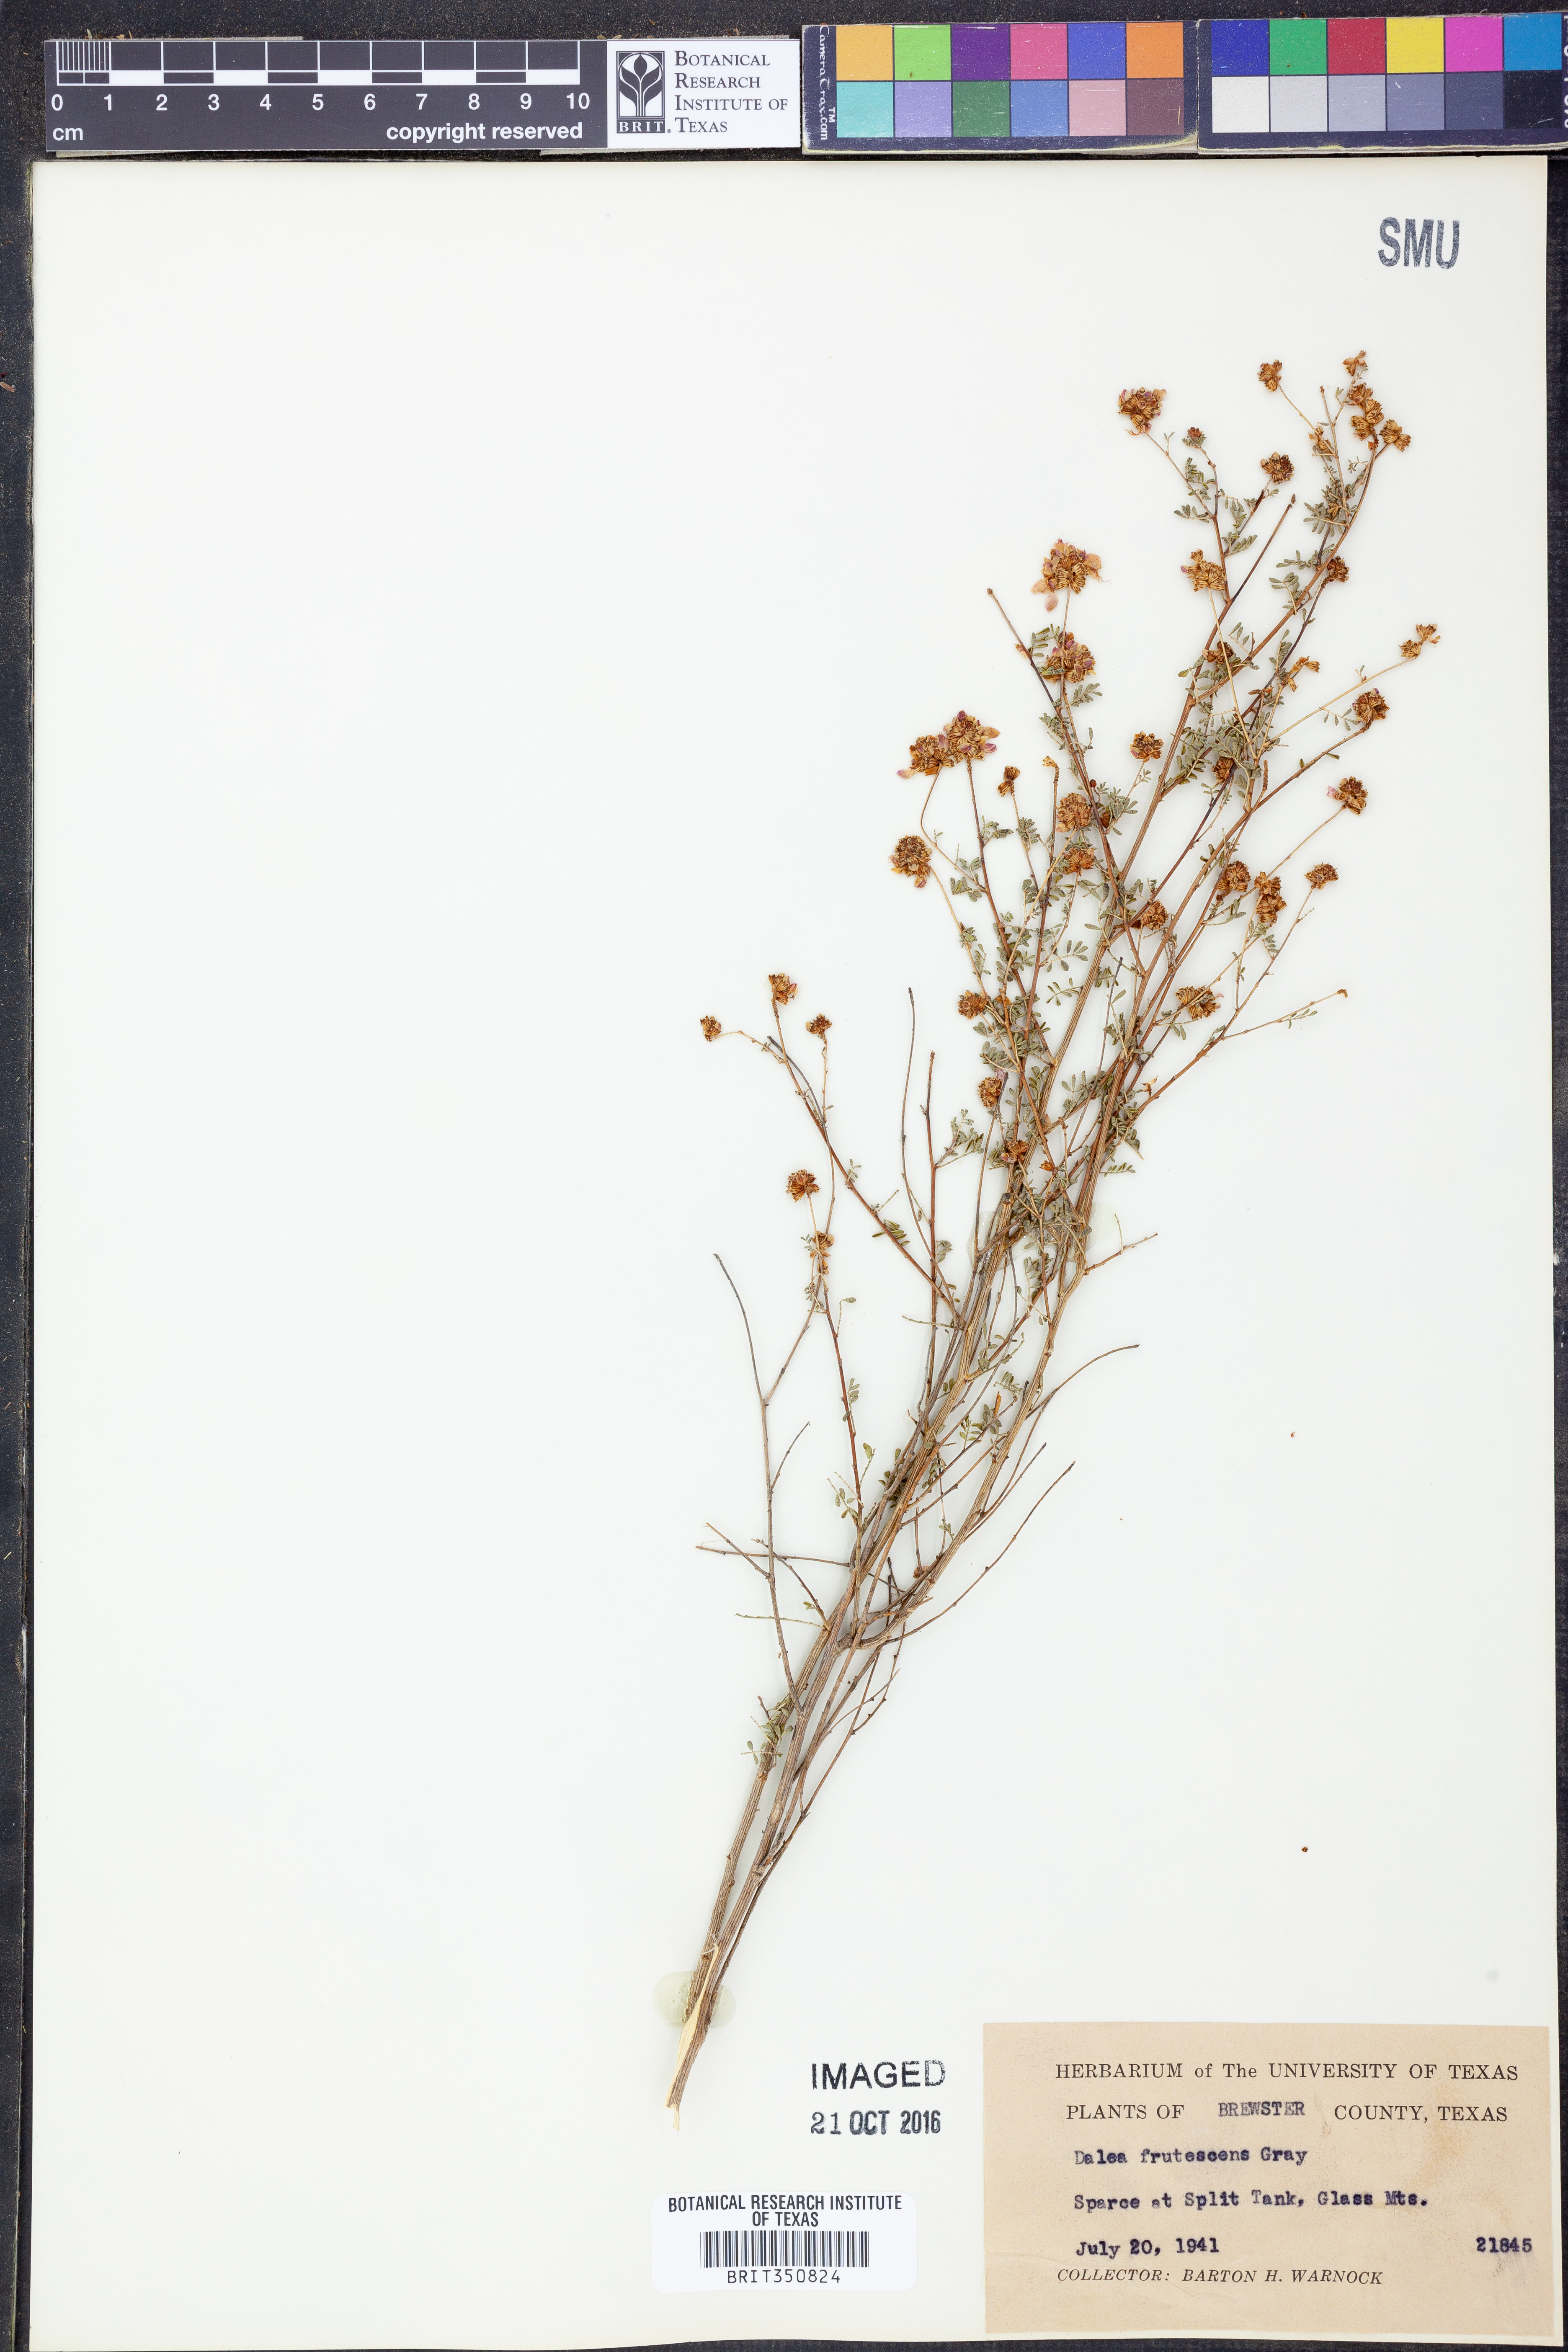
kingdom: Plantae
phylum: Tracheophyta
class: Magnoliopsida
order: Fabales
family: Fabaceae
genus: Dalea
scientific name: Dalea frutescens
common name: Black dalea
